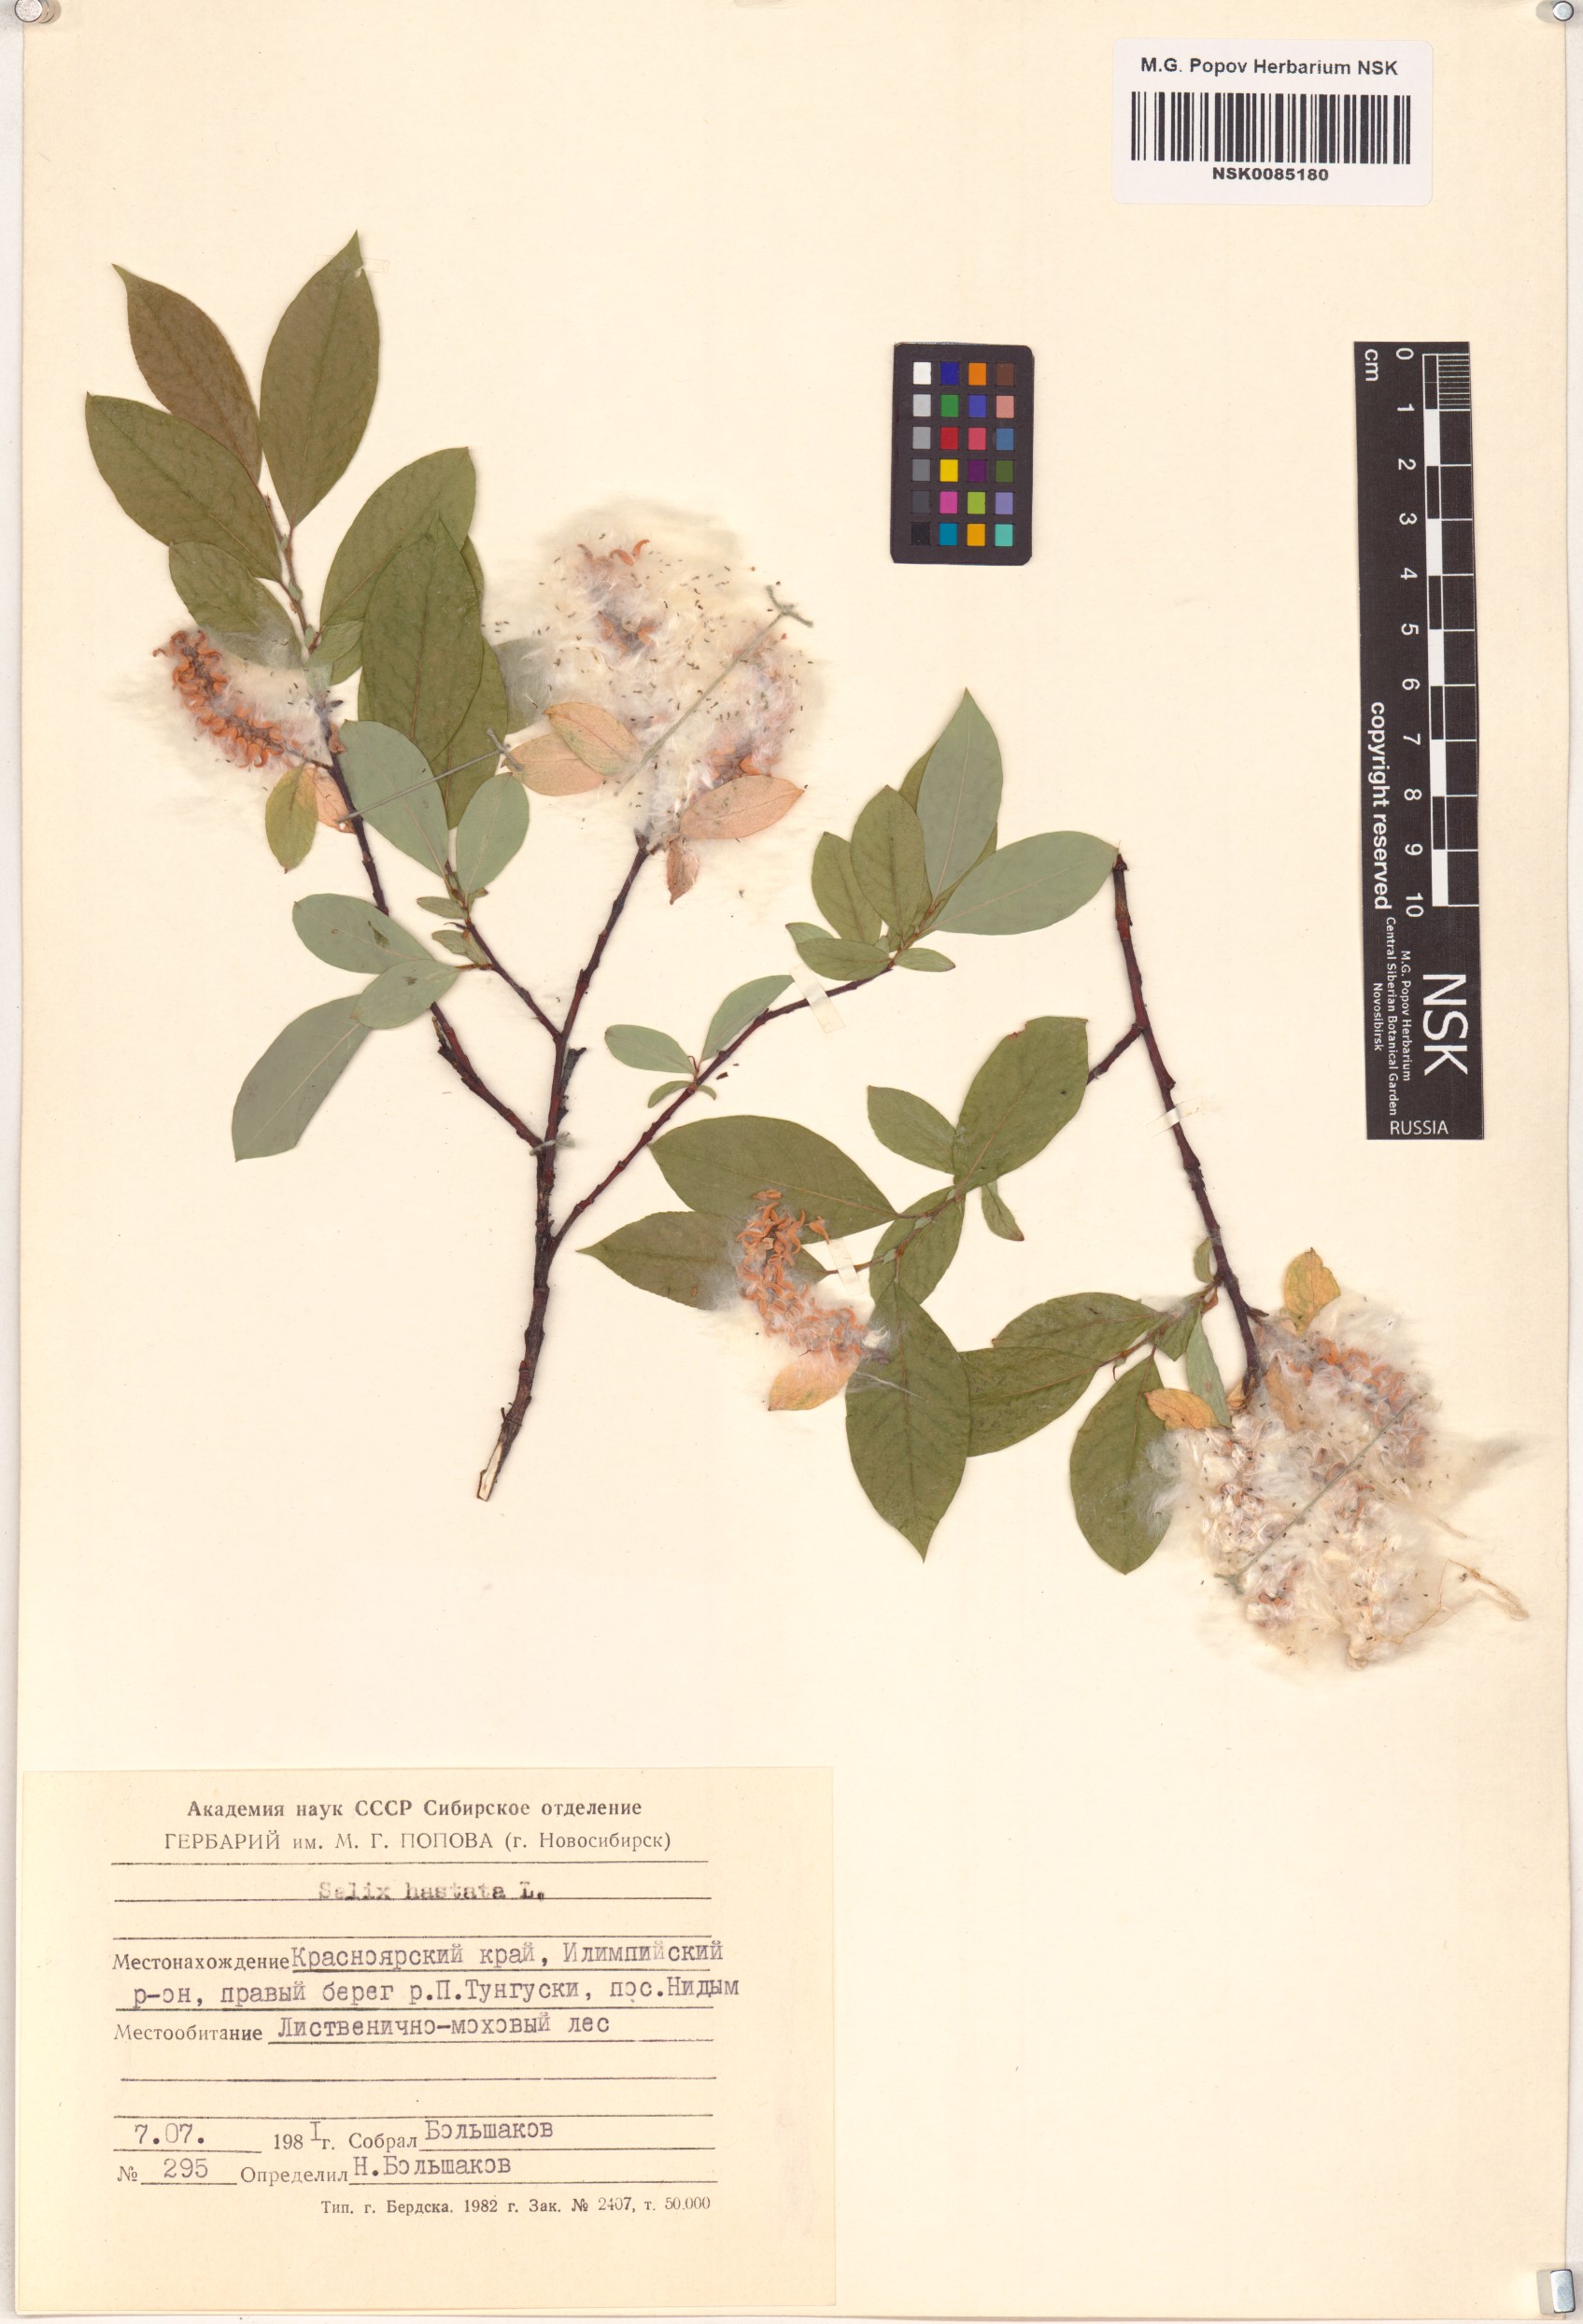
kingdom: Plantae
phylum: Tracheophyta
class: Magnoliopsida
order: Malpighiales
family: Salicaceae
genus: Salix
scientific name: Salix hastata
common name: Halberd willow
